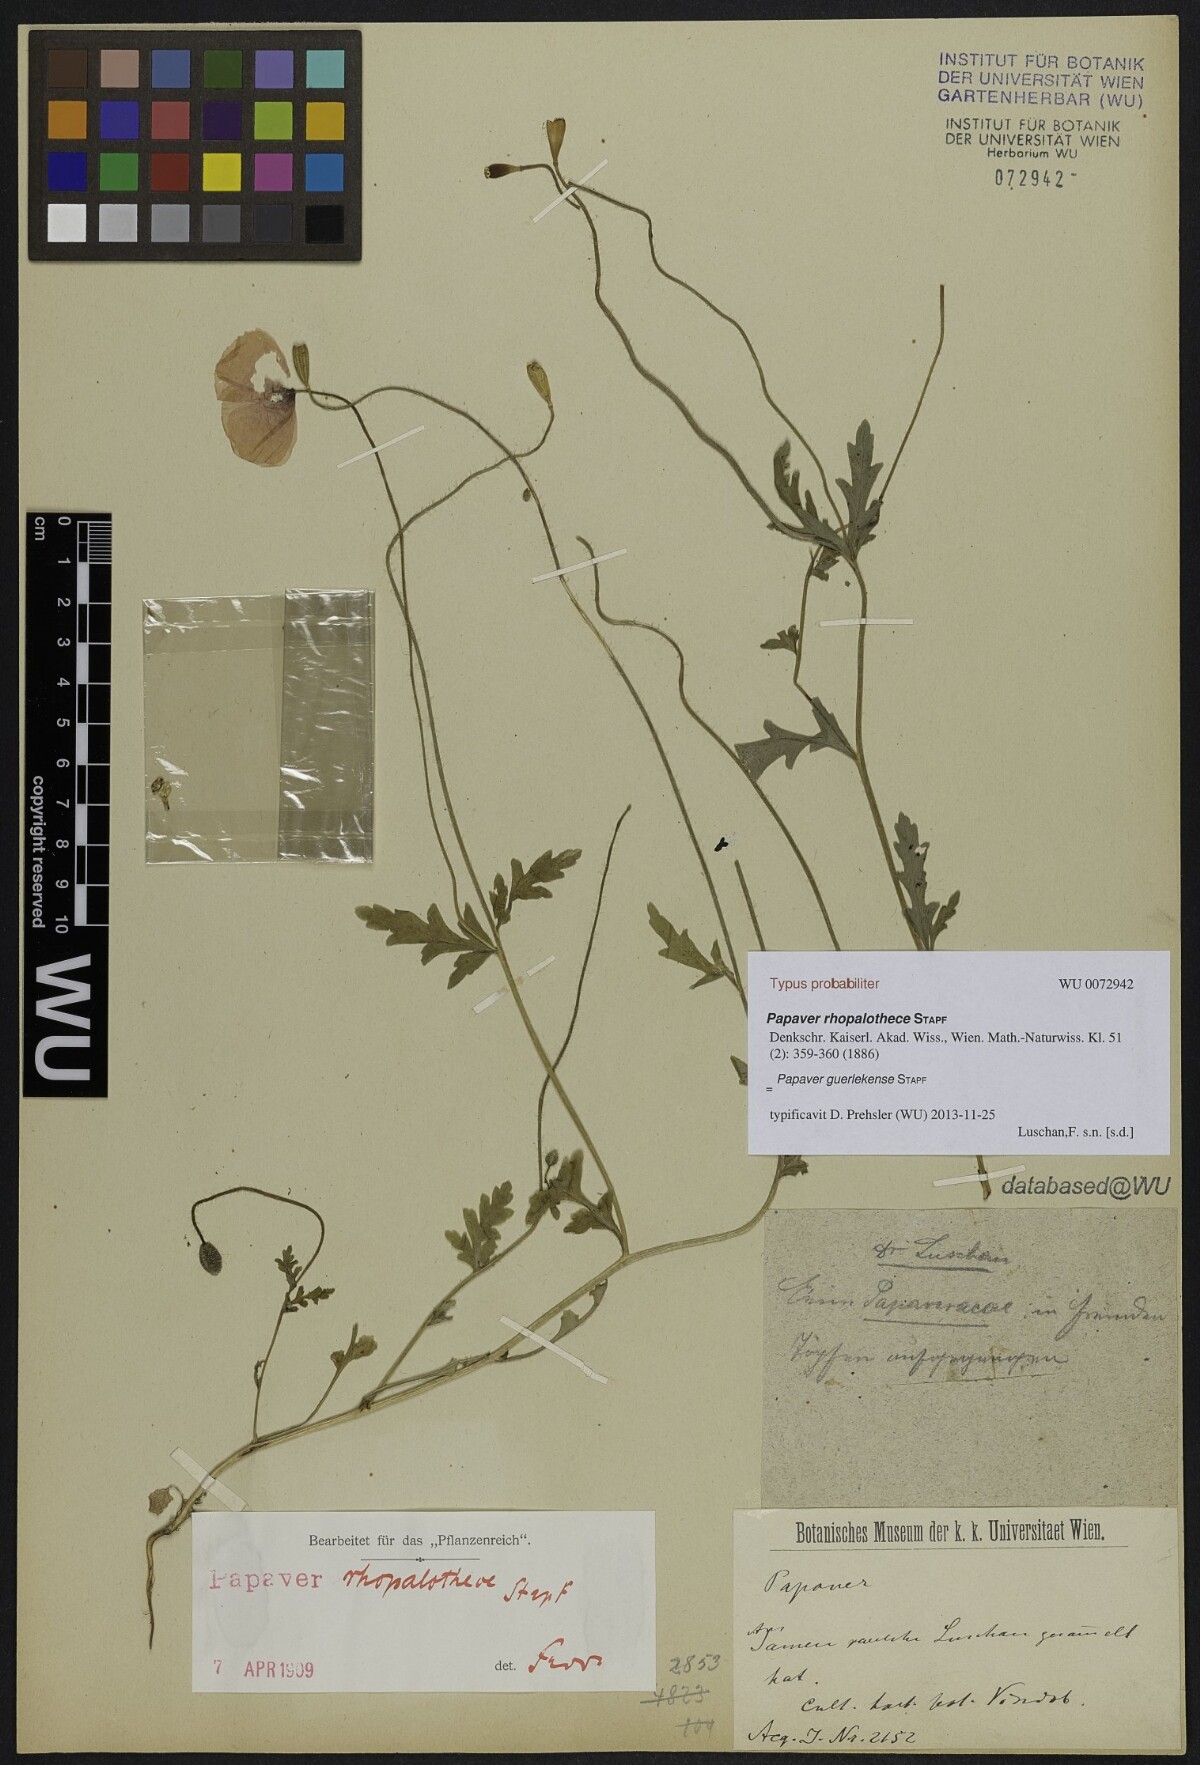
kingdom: Plantae
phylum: Tracheophyta
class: Magnoliopsida
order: Ranunculales
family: Papaveraceae
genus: Papaver
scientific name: Papaver guerlekense
